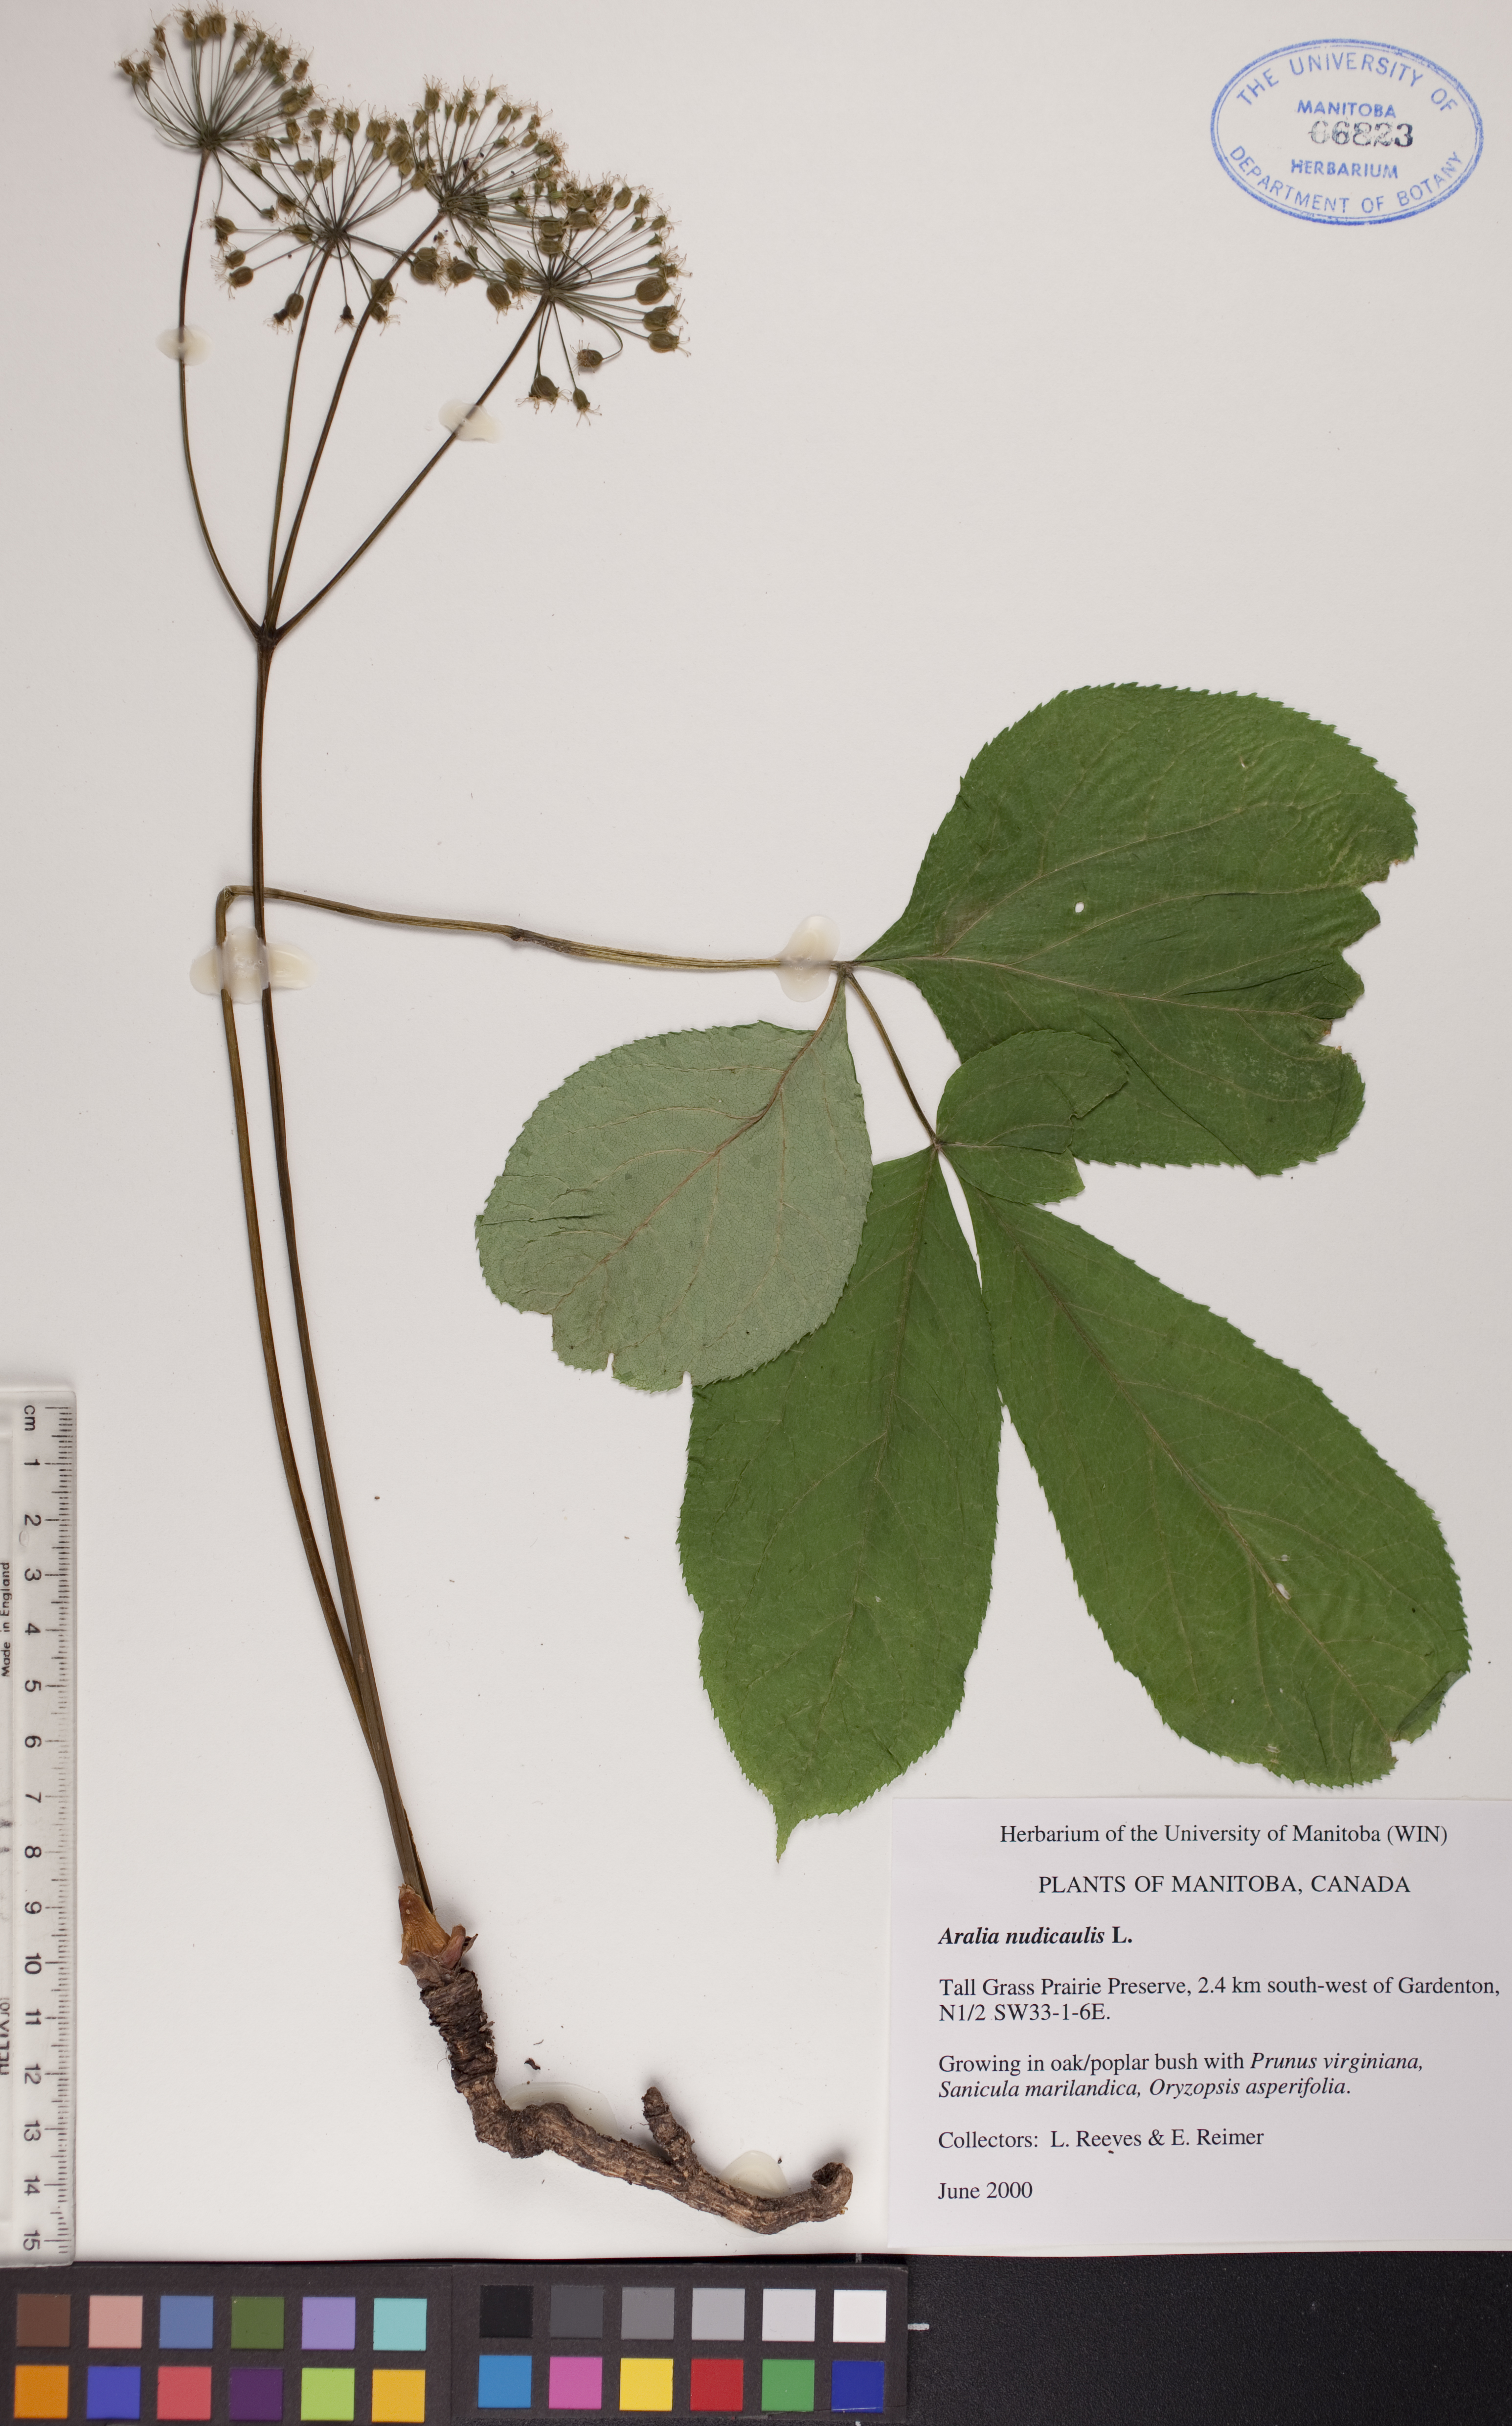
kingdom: Plantae
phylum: Tracheophyta
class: Magnoliopsida
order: Apiales
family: Araliaceae
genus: Aralia
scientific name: Aralia nudicaulis
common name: Wild sarsaparilla
